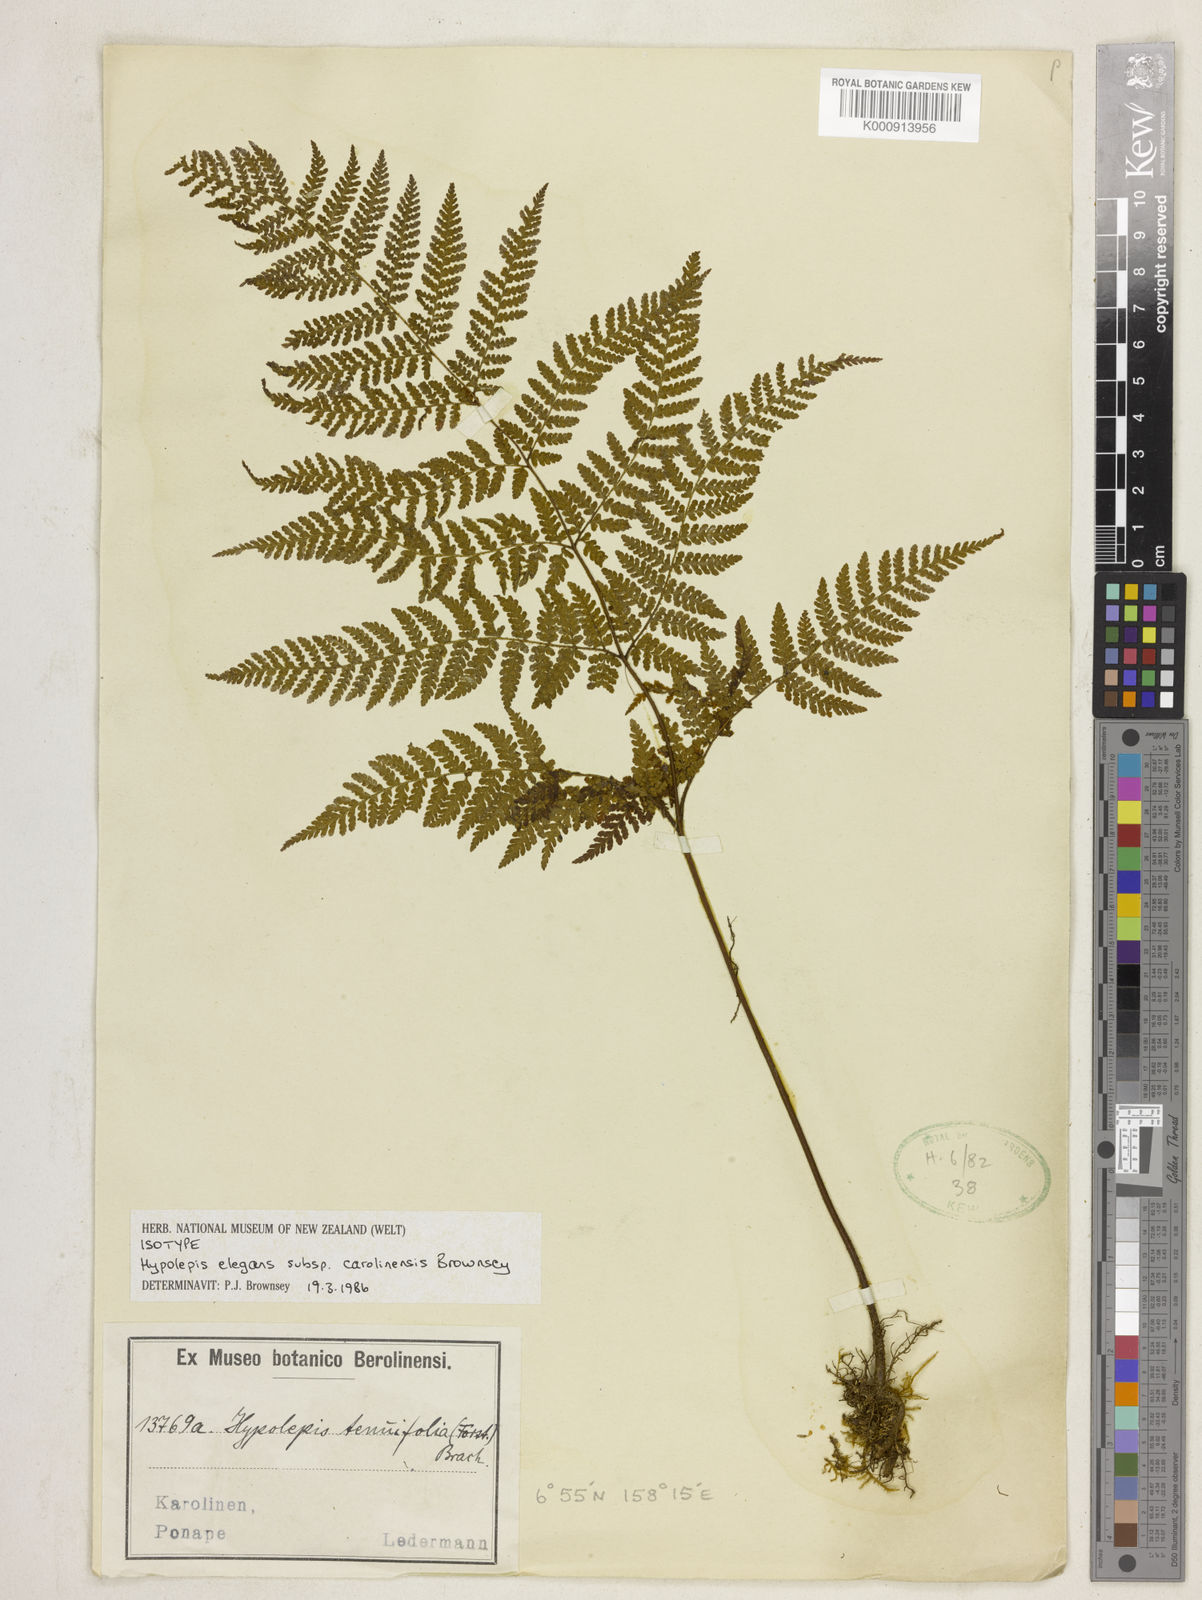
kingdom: Plantae
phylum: Tracheophyta
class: Polypodiopsida
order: Polypodiales
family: Dennstaedtiaceae
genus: Hypolepis
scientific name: Hypolepis elegans
